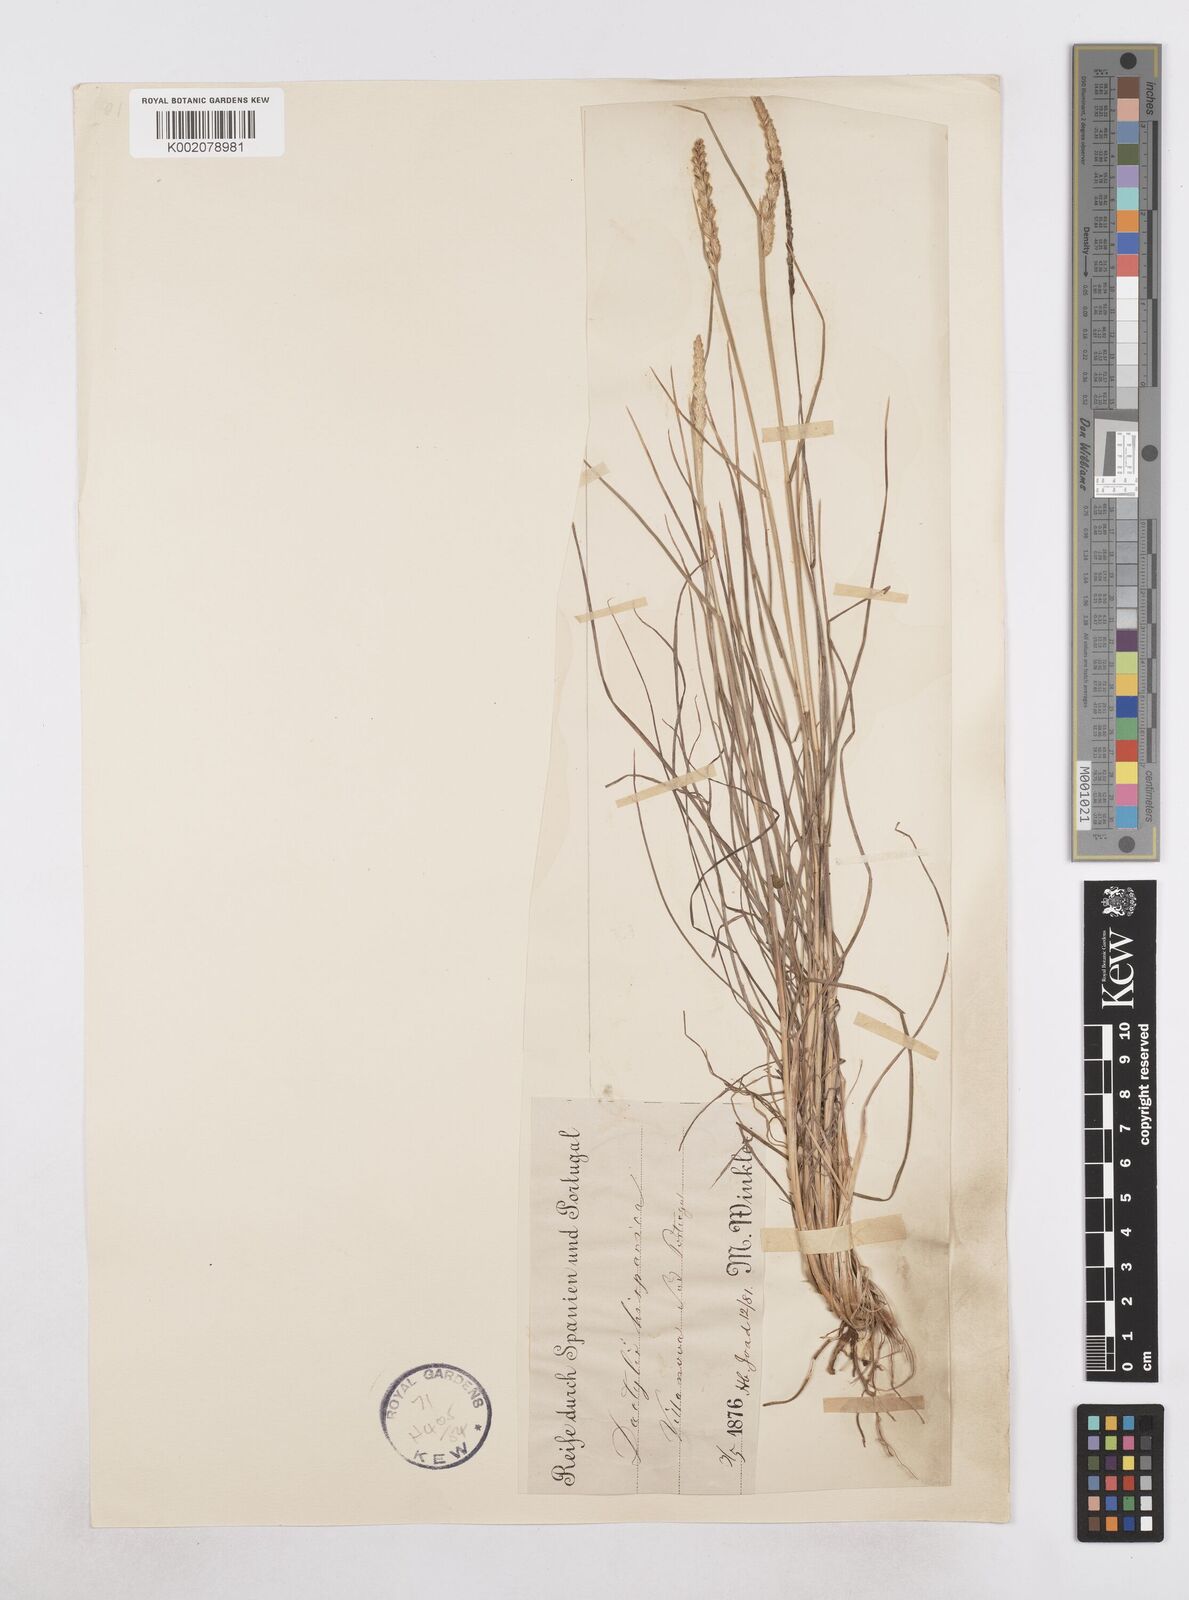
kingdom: Plantae
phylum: Tracheophyta
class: Liliopsida
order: Poales
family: Poaceae
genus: Dactylis
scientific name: Dactylis glomerata
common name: Orchardgrass
